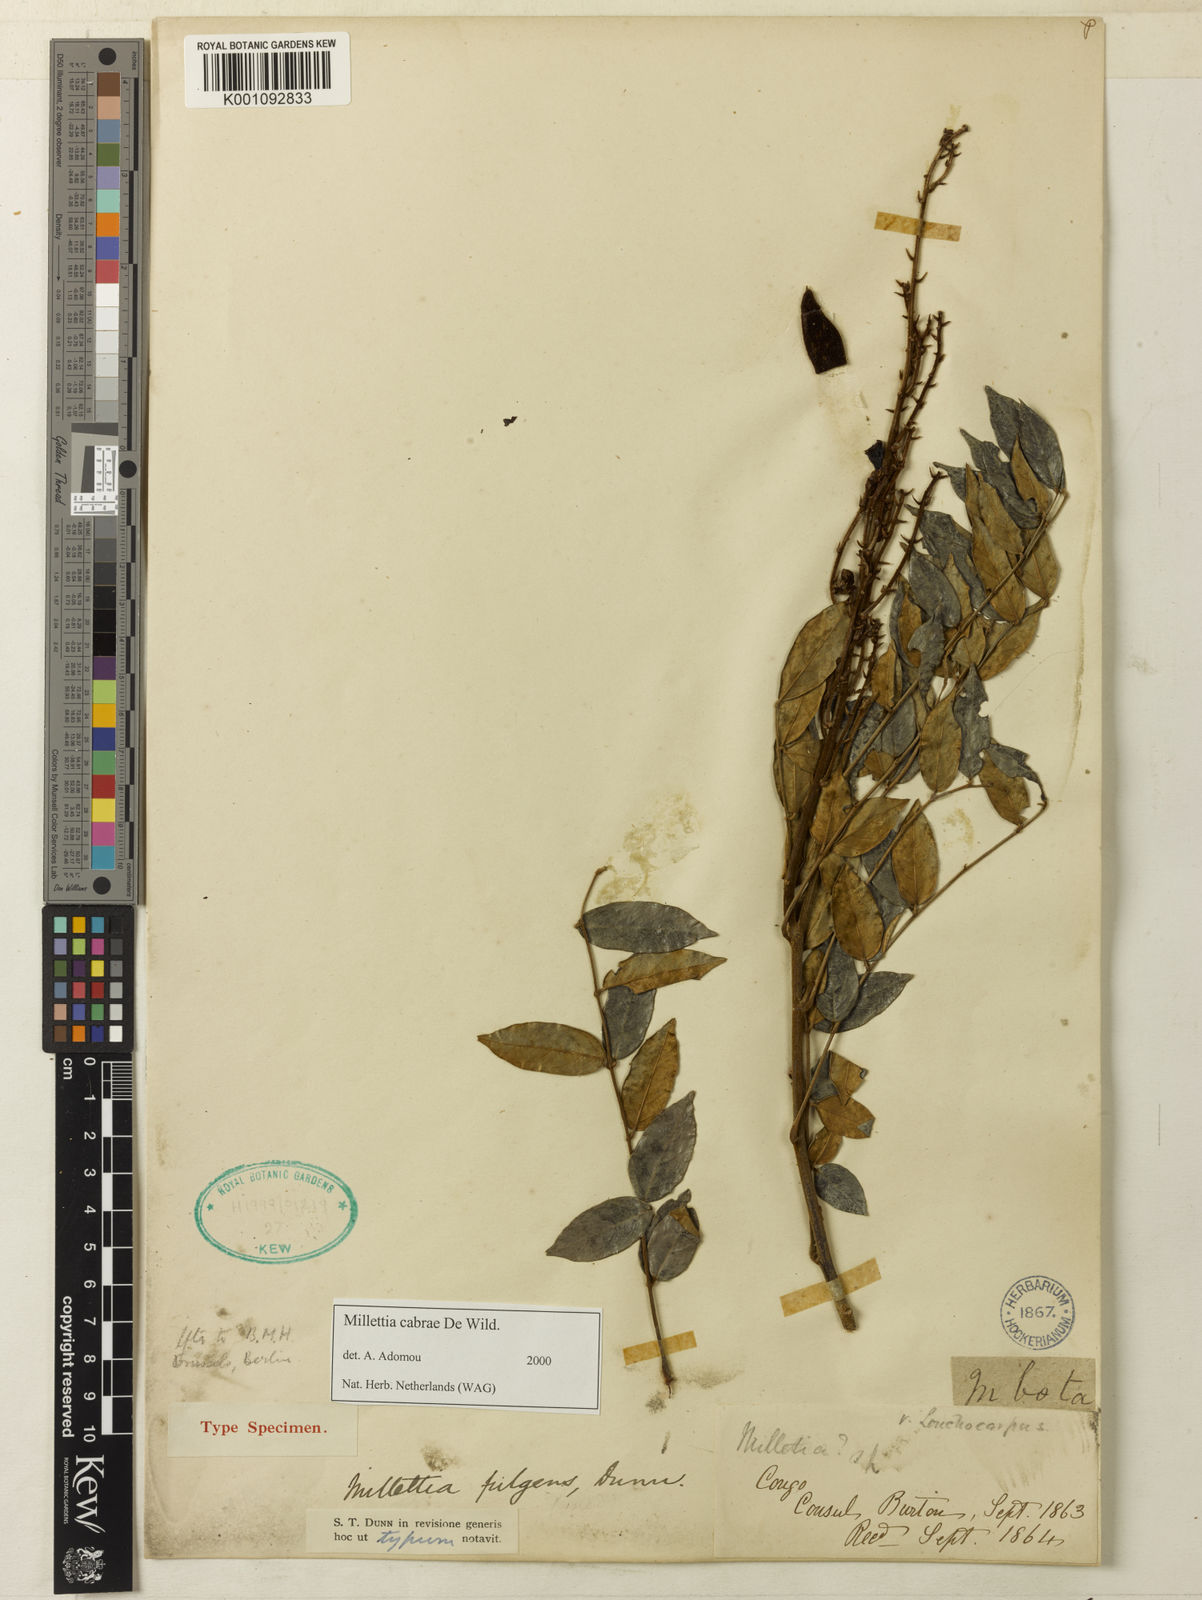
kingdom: Plantae
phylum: Tracheophyta
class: Magnoliopsida
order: Fabales
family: Fabaceae
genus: Millettia
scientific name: Millettia fulgens
